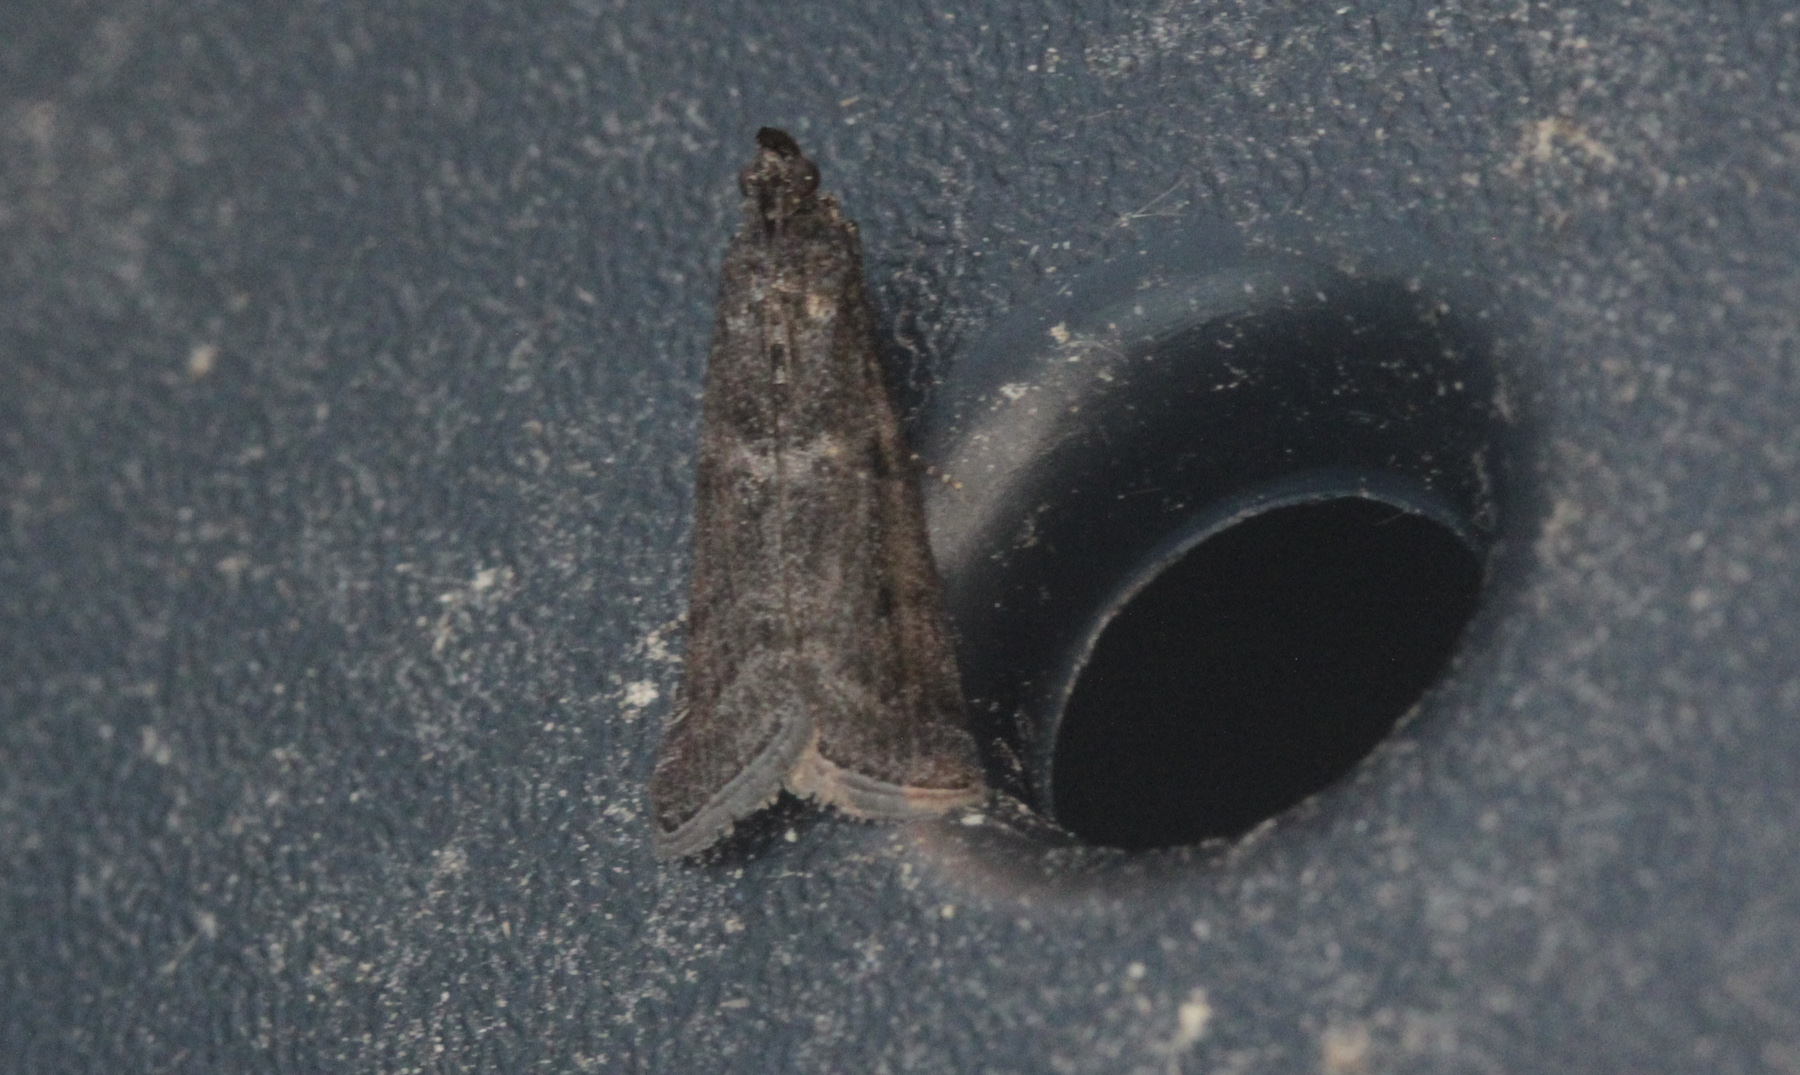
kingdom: Animalia
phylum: Arthropoda
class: Insecta
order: Lepidoptera
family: Pyralidae
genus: Acrobasis
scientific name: Acrobasis advenella
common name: Grey knot-horn
